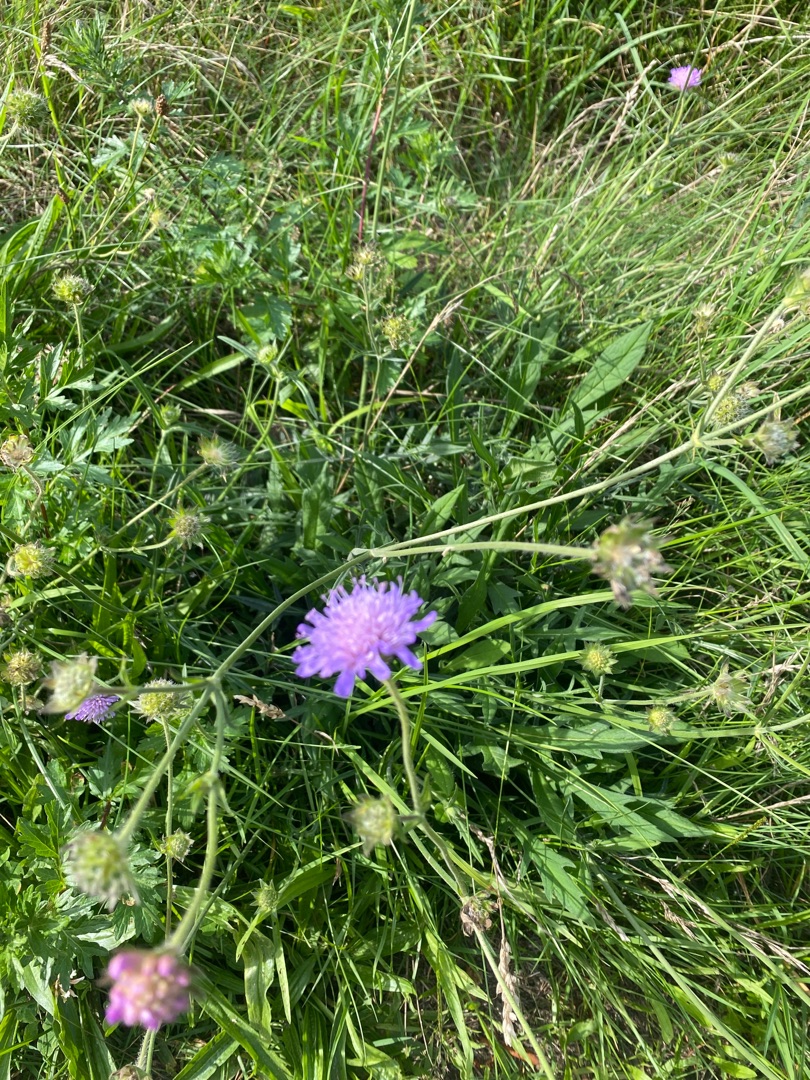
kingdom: Plantae
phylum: Tracheophyta
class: Magnoliopsida
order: Dipsacales
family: Caprifoliaceae
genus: Knautia
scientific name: Knautia arvensis
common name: Blåhat
